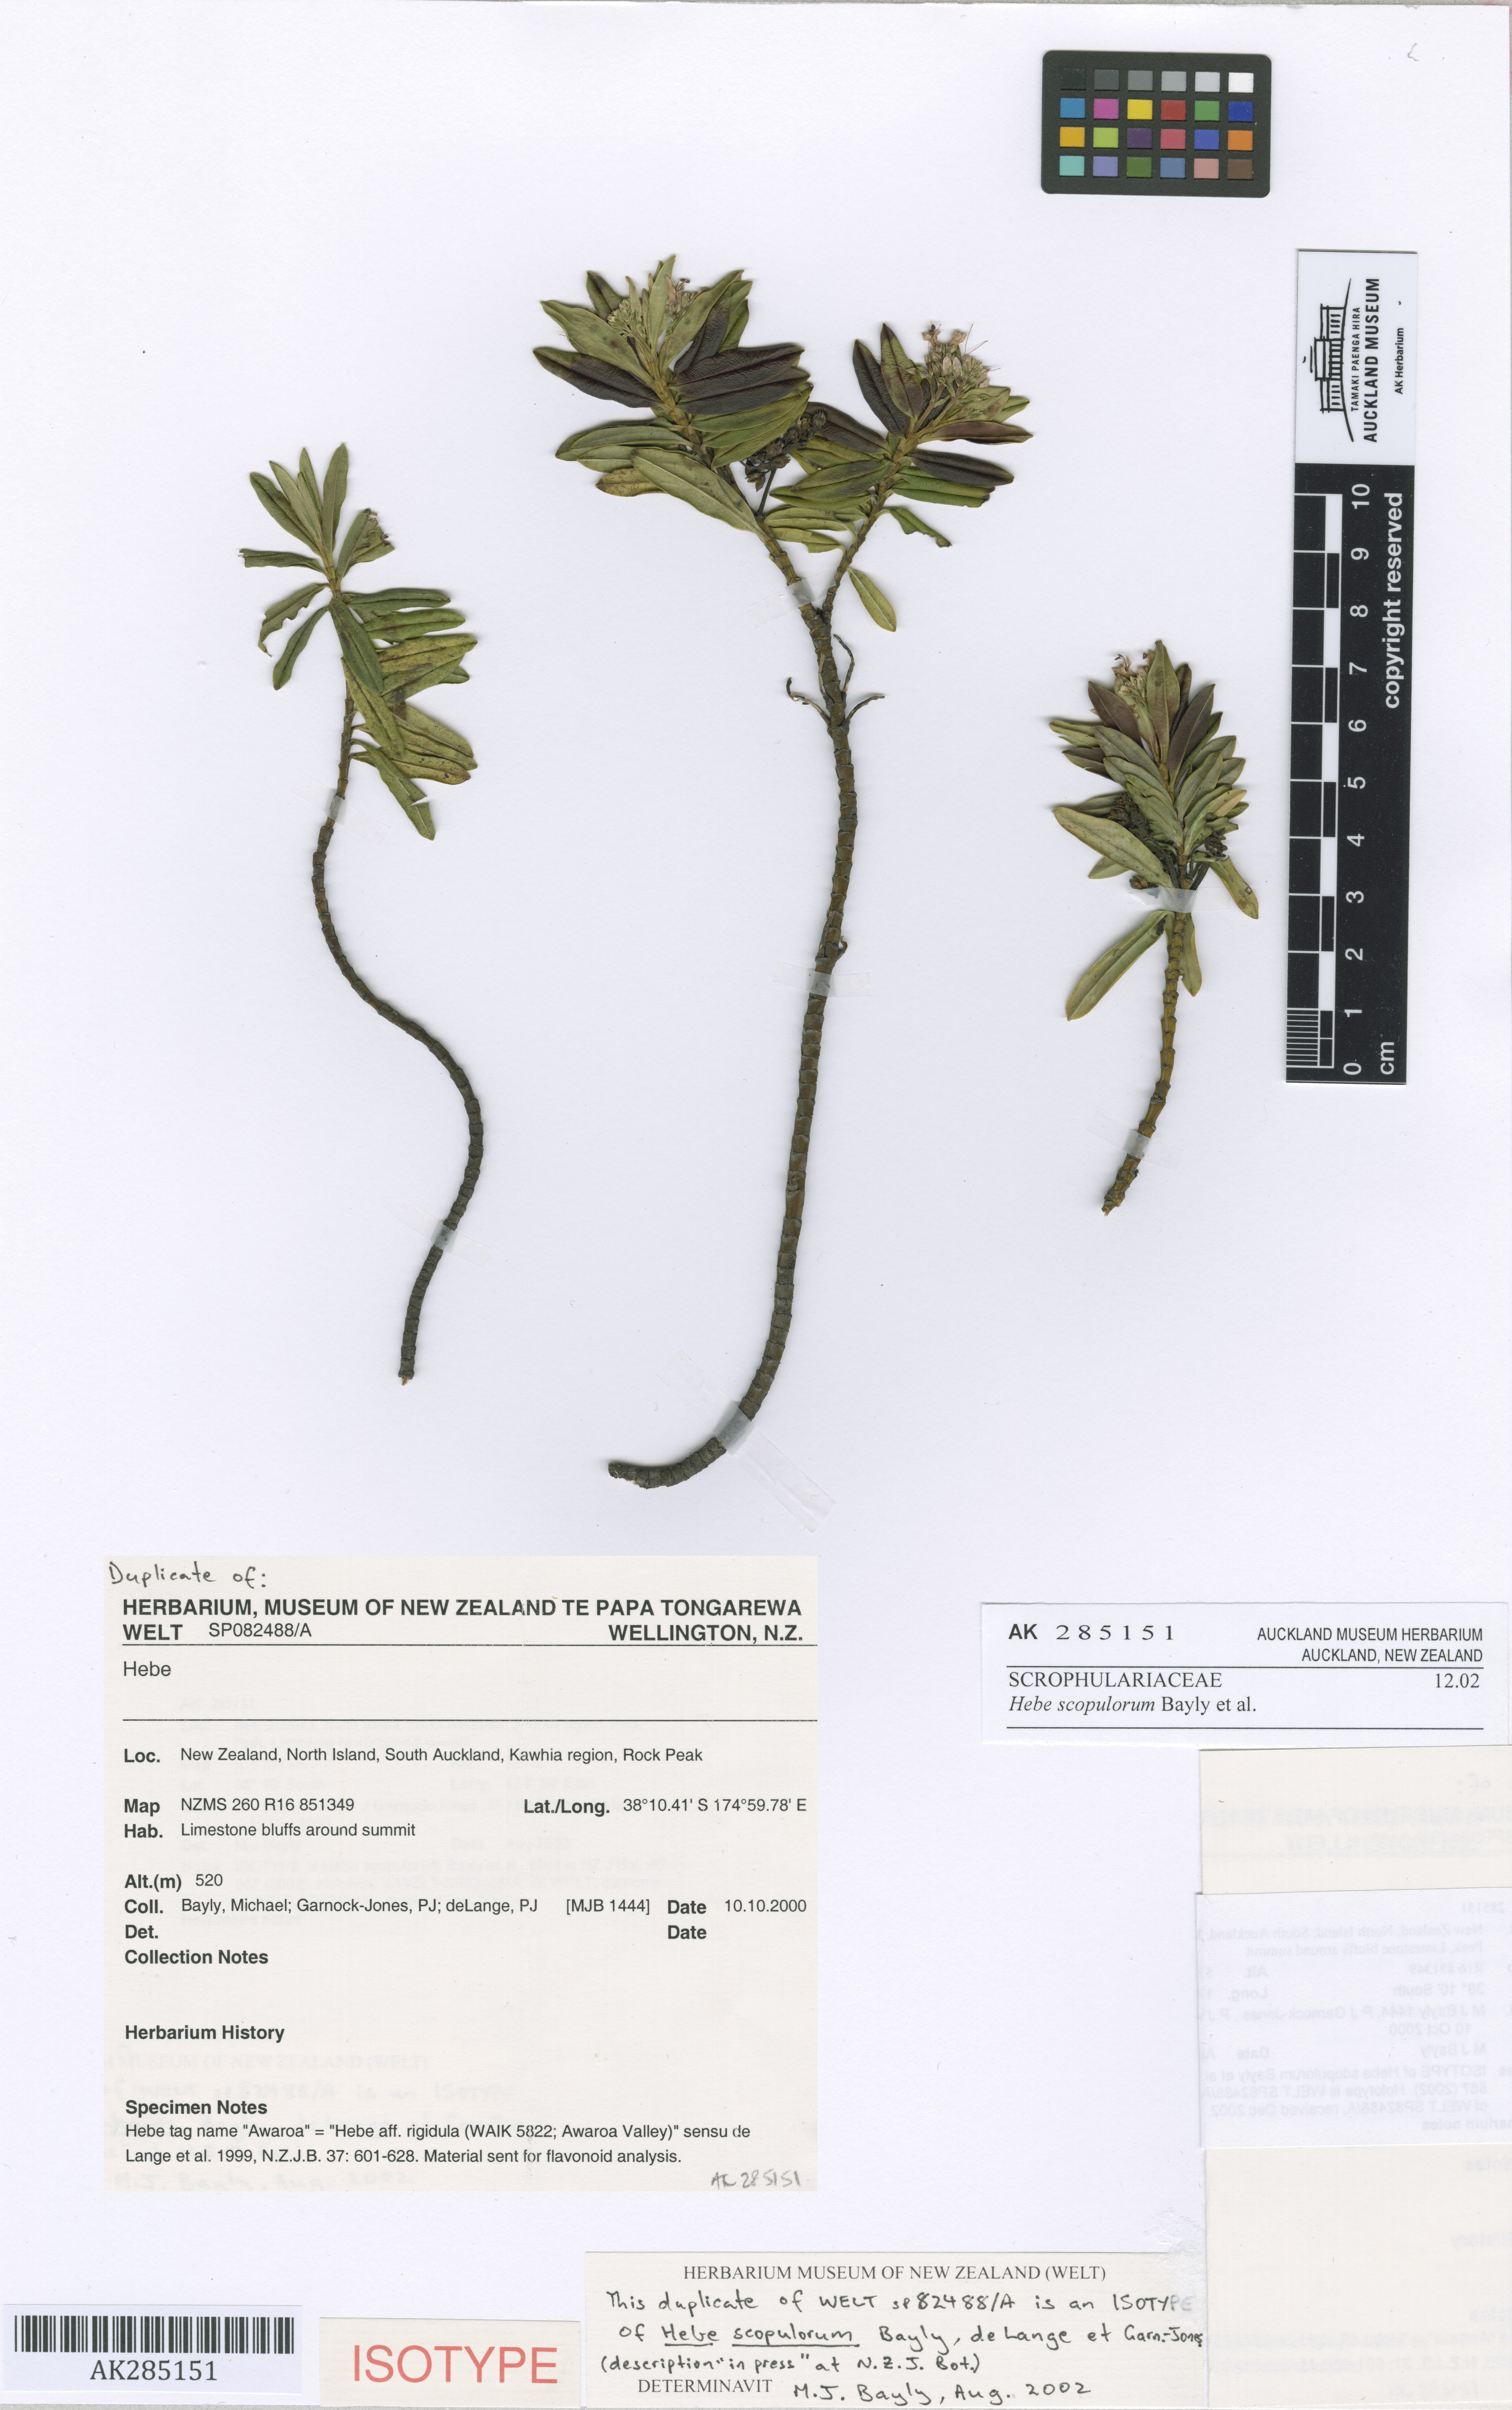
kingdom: Plantae
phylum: Tracheophyta
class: Magnoliopsida
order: Lamiales
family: Plantaginaceae
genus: Veronica
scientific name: Veronica scopulorum
